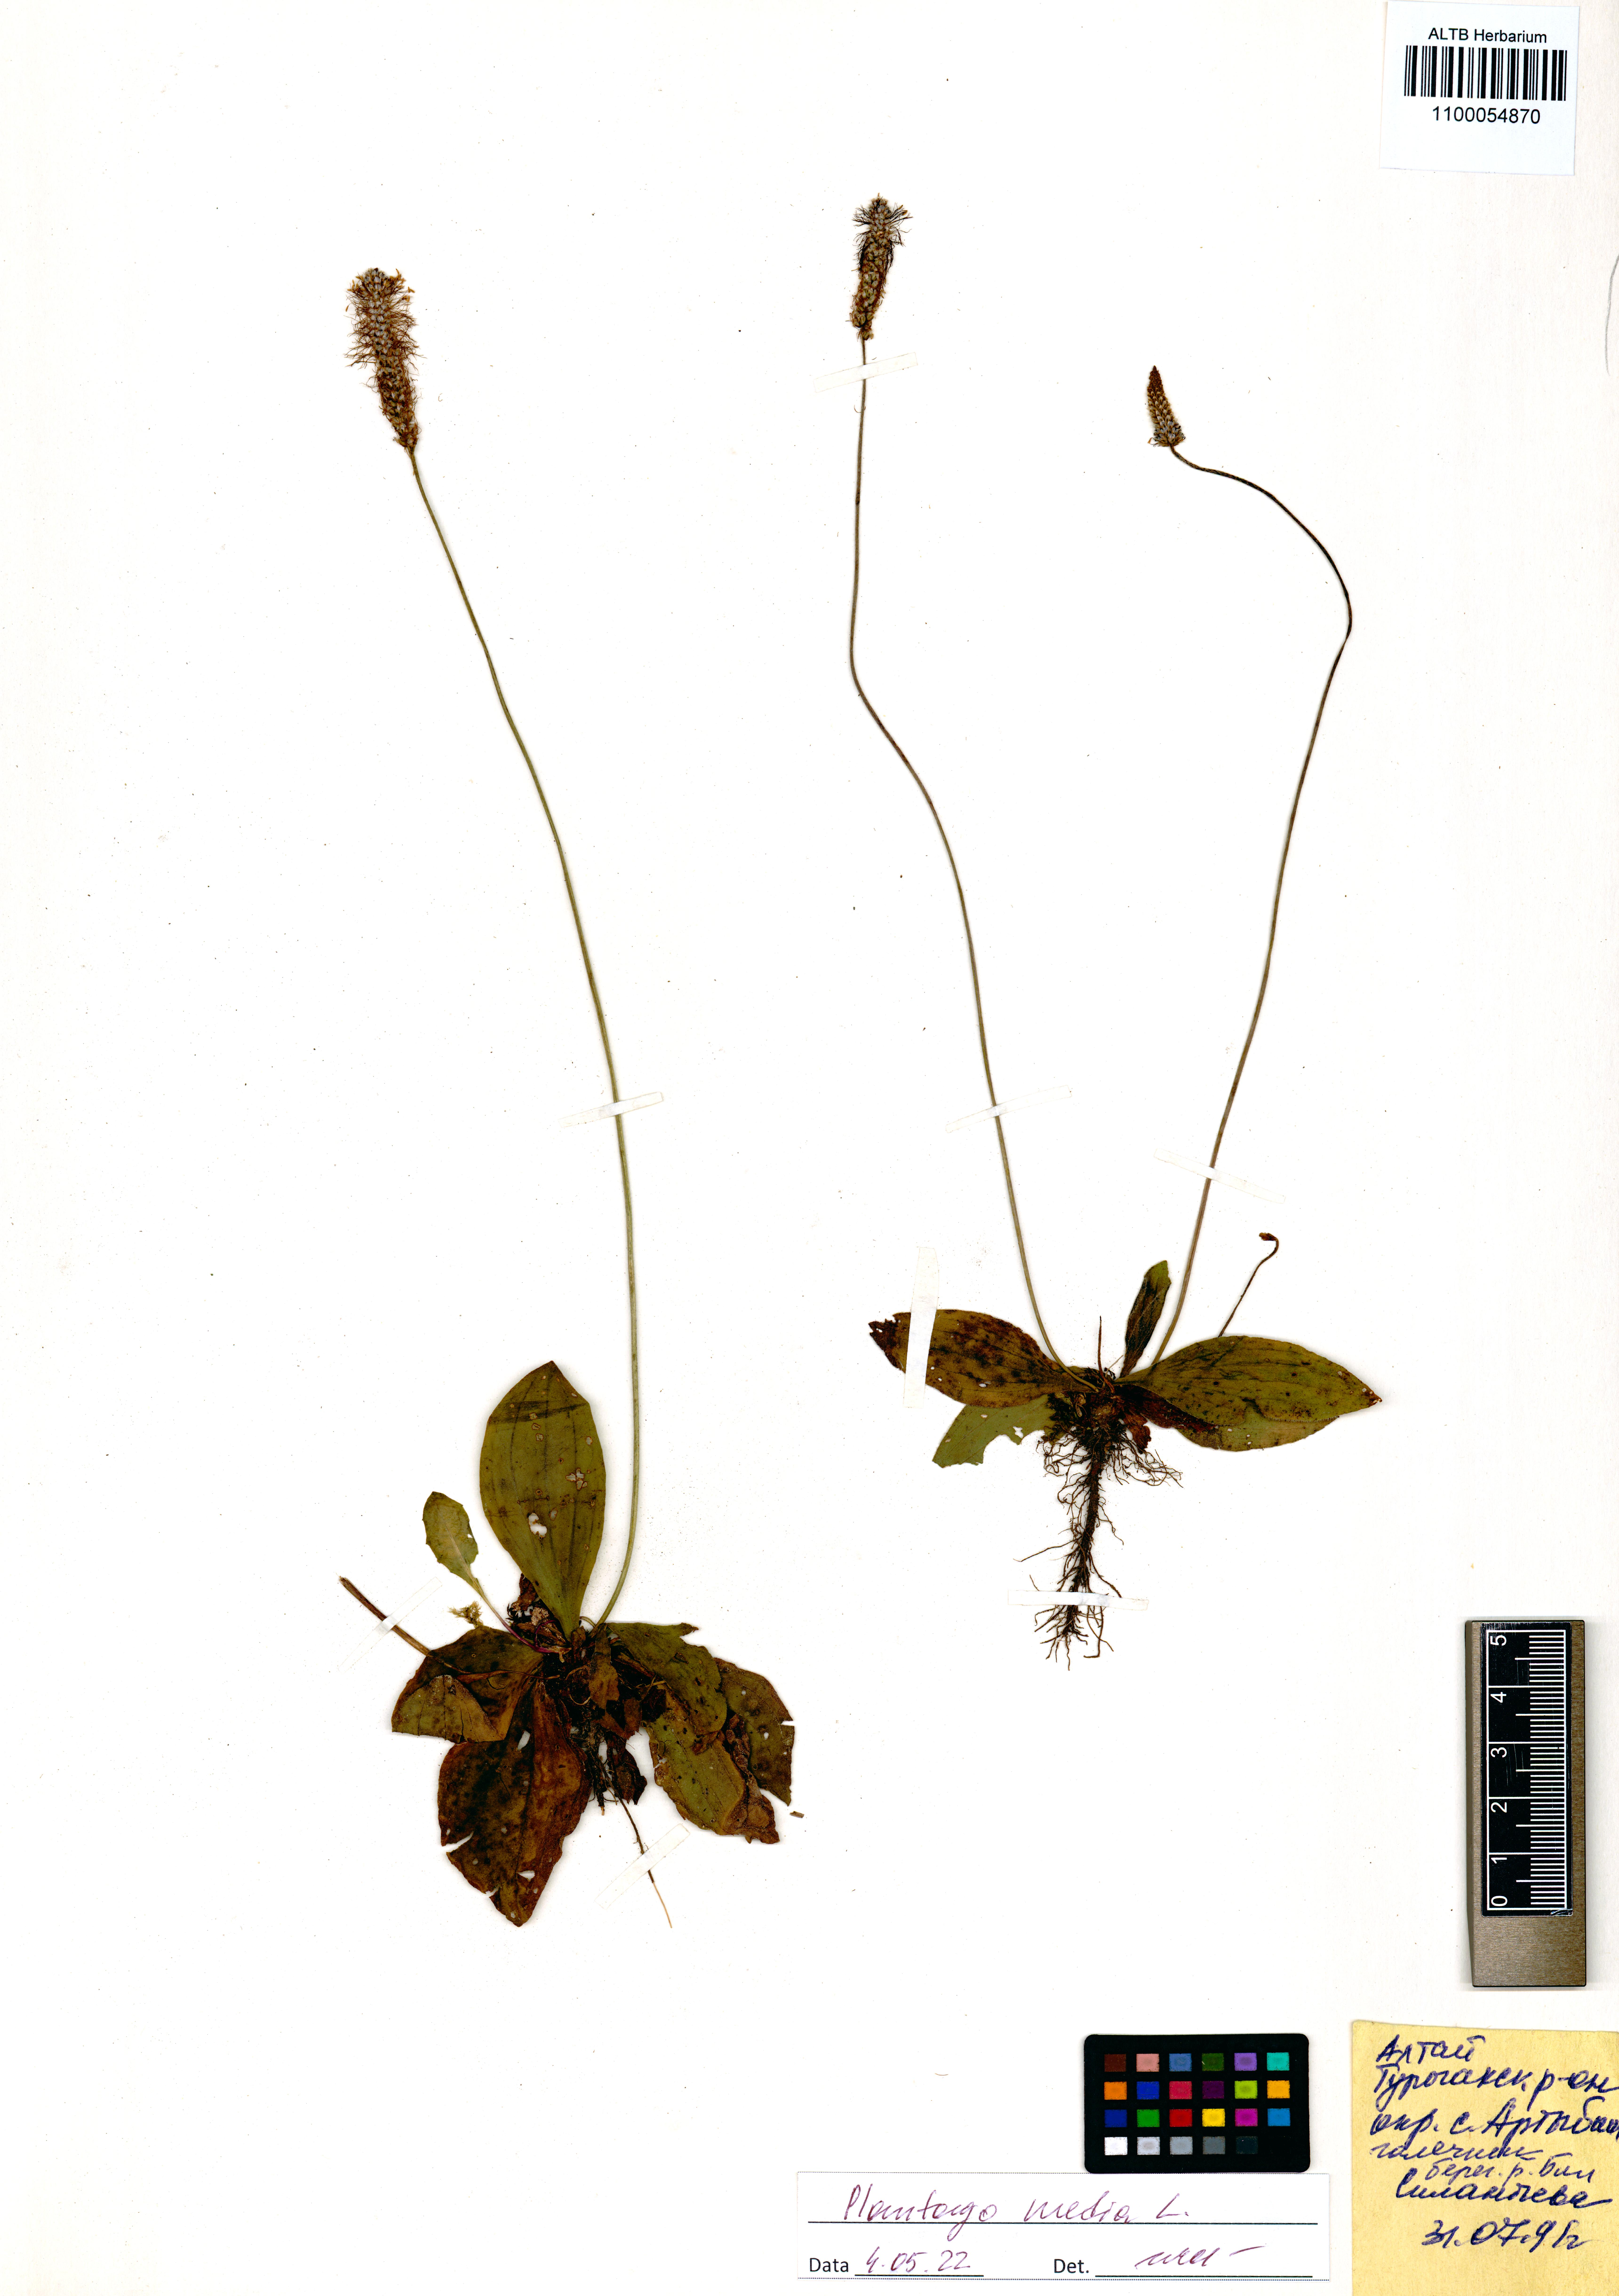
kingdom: Plantae
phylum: Tracheophyta
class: Magnoliopsida
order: Lamiales
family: Plantaginaceae
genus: Plantago
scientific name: Plantago media
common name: Hoary plantain
